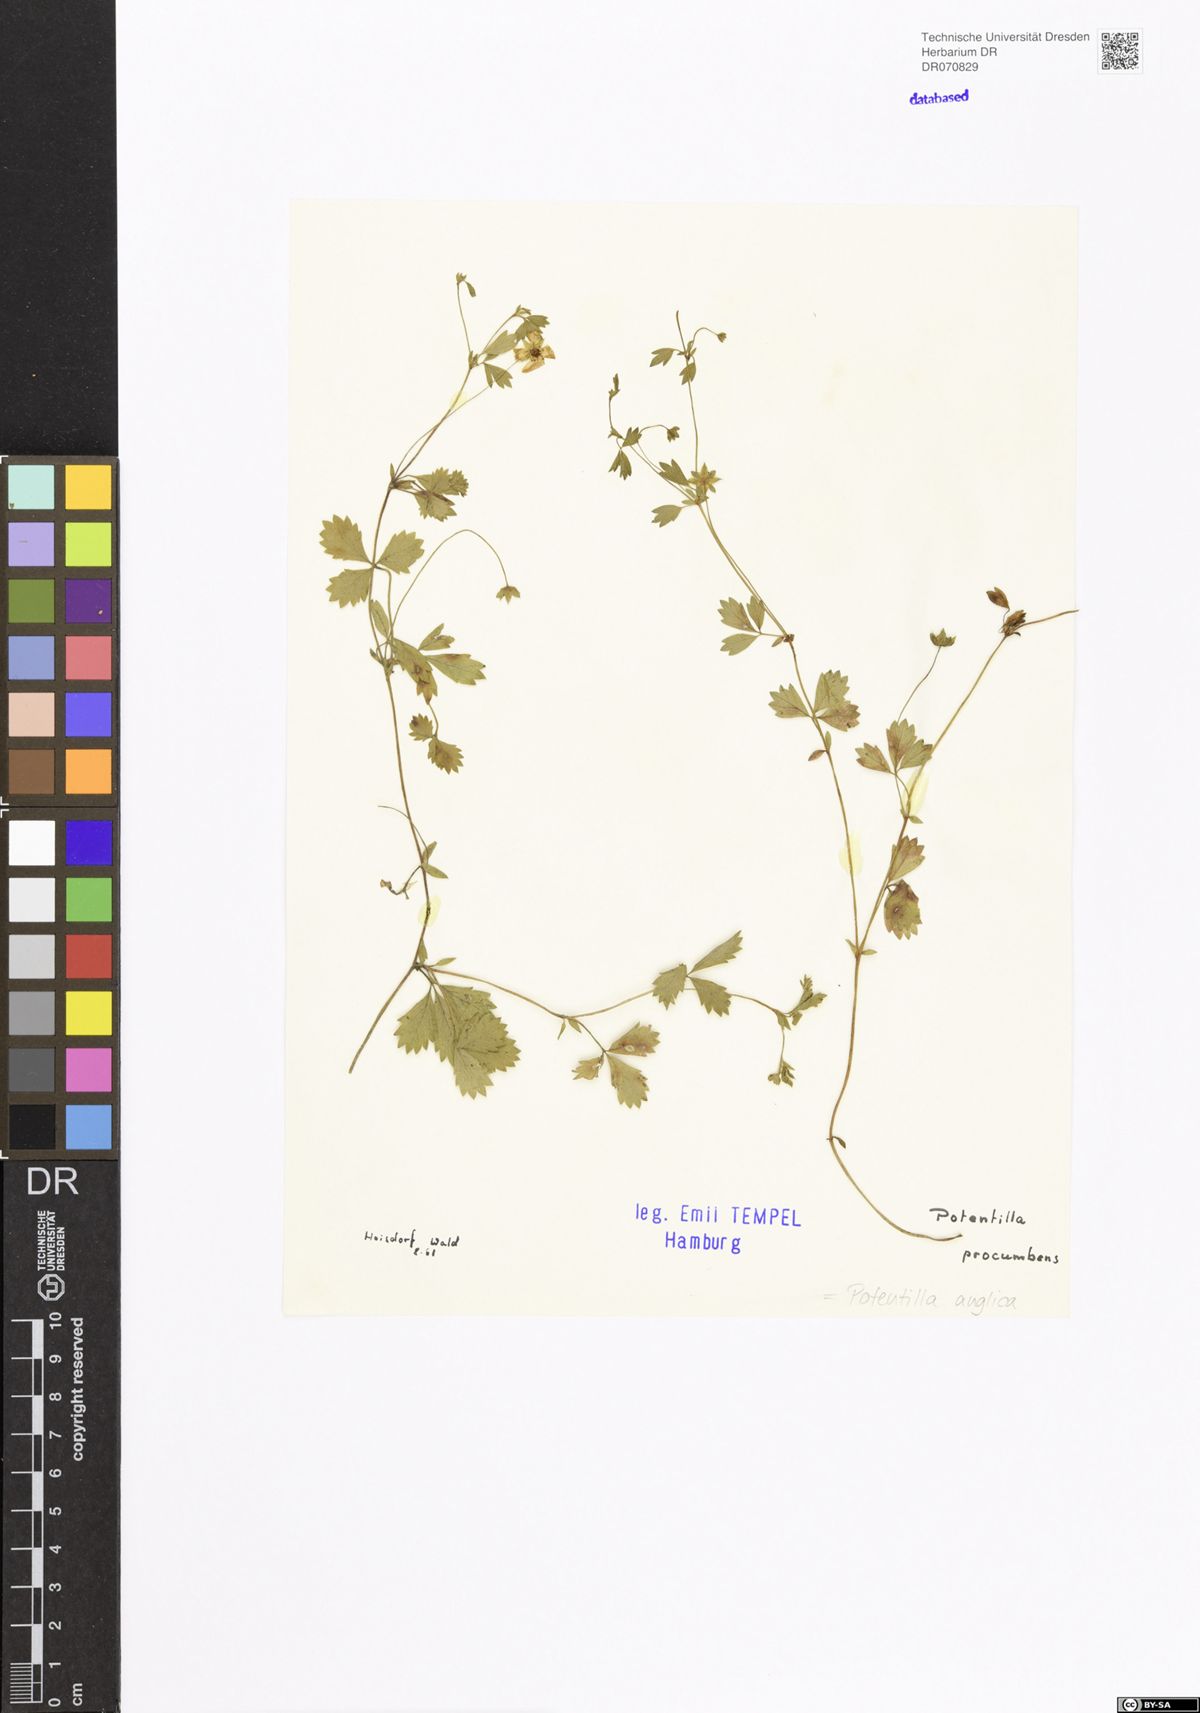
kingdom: Plantae
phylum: Tracheophyta
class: Magnoliopsida
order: Rosales
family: Rosaceae
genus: Potentilla
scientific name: Potentilla anglica
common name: Trailing tormentil
